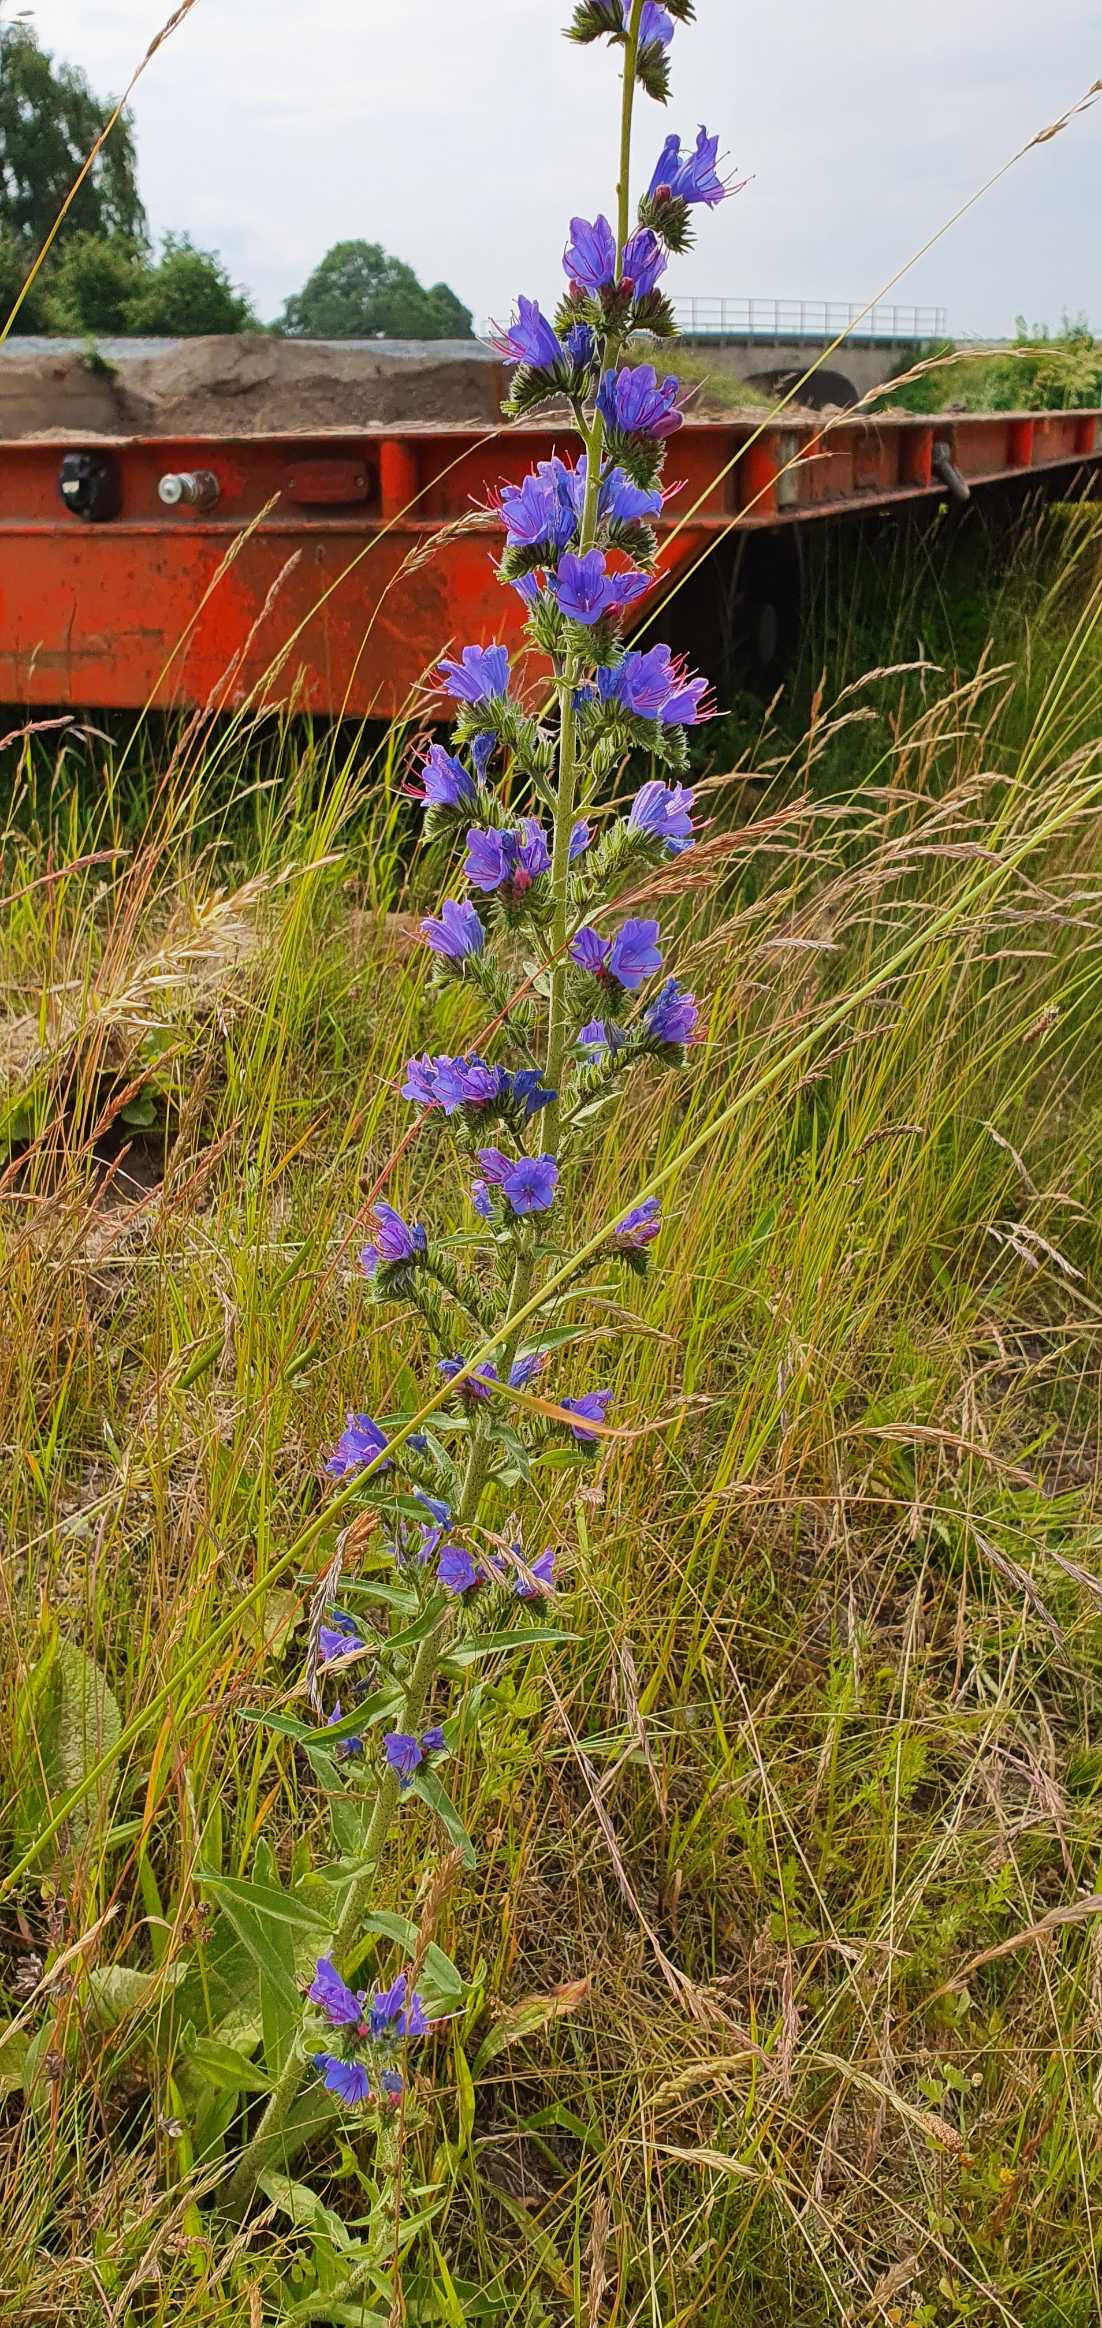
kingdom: Plantae
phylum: Tracheophyta
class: Magnoliopsida
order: Boraginales
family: Boraginaceae
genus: Echium
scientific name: Echium vulgare
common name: Slangehoved
